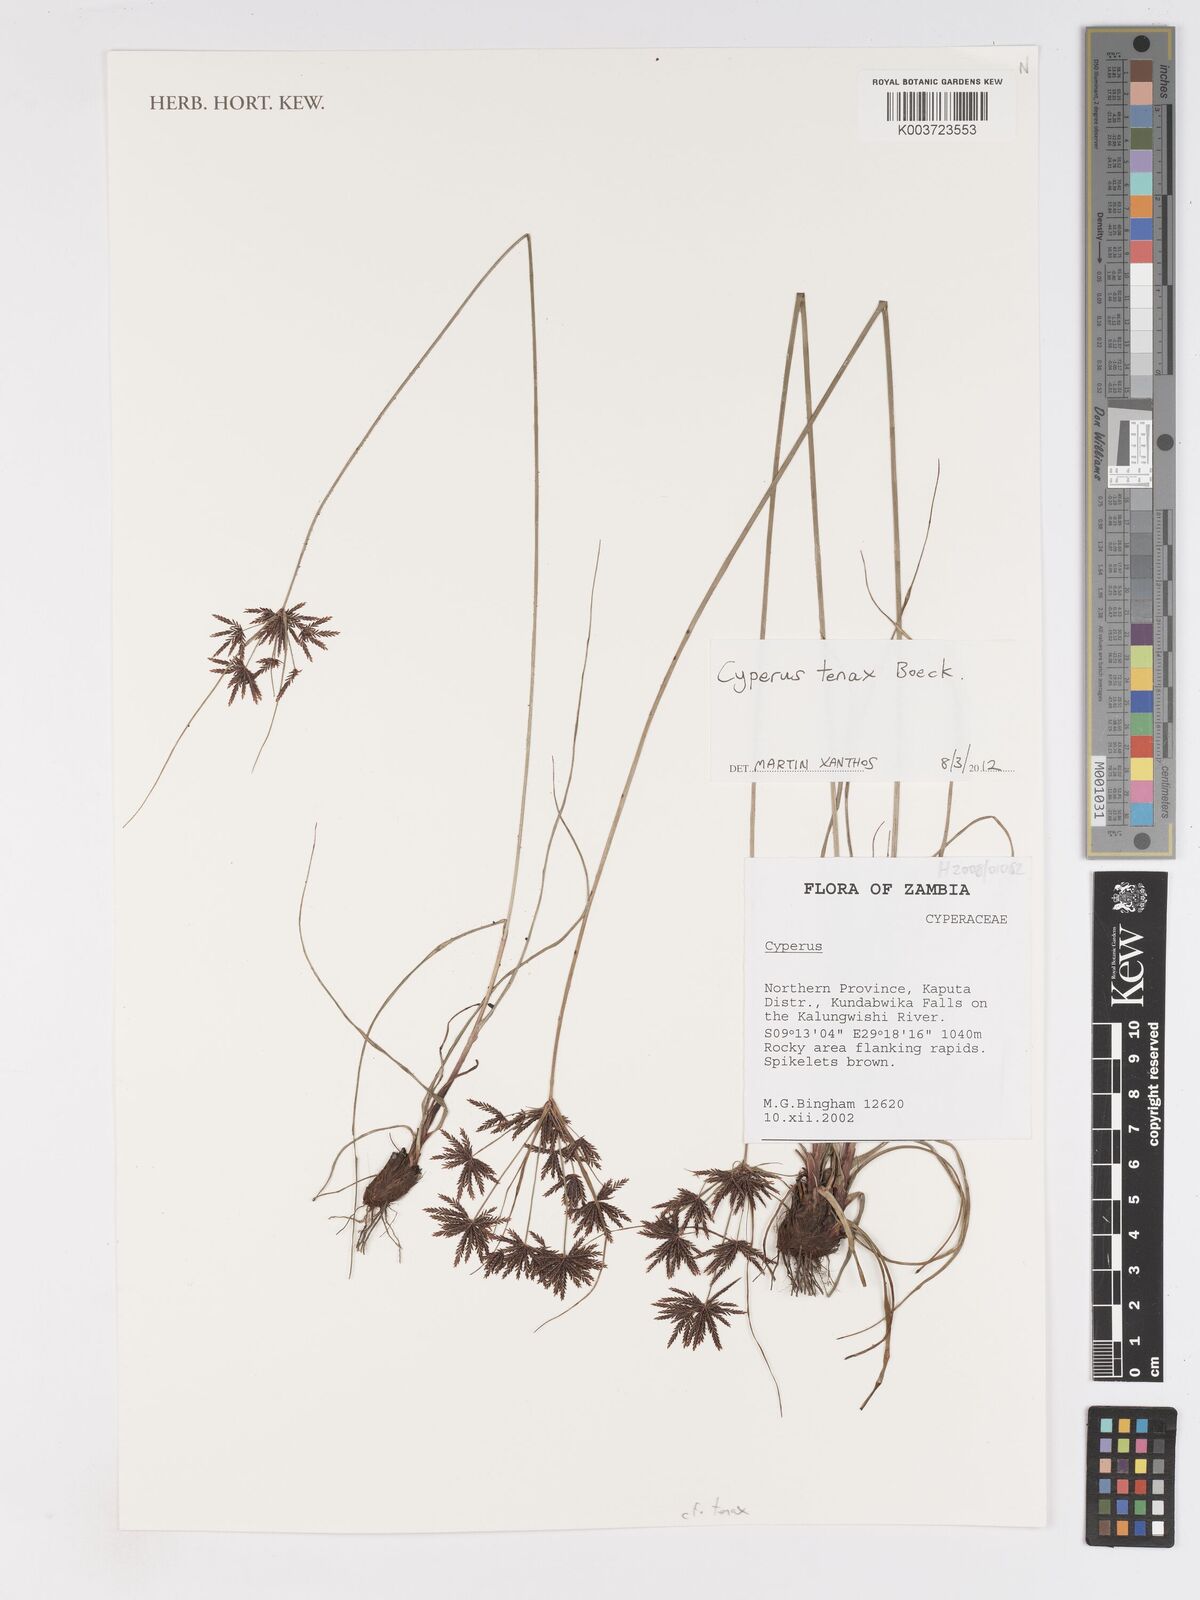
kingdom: Plantae
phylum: Tracheophyta
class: Liliopsida
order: Poales
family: Cyperaceae
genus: Cyperus
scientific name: Cyperus tenax
